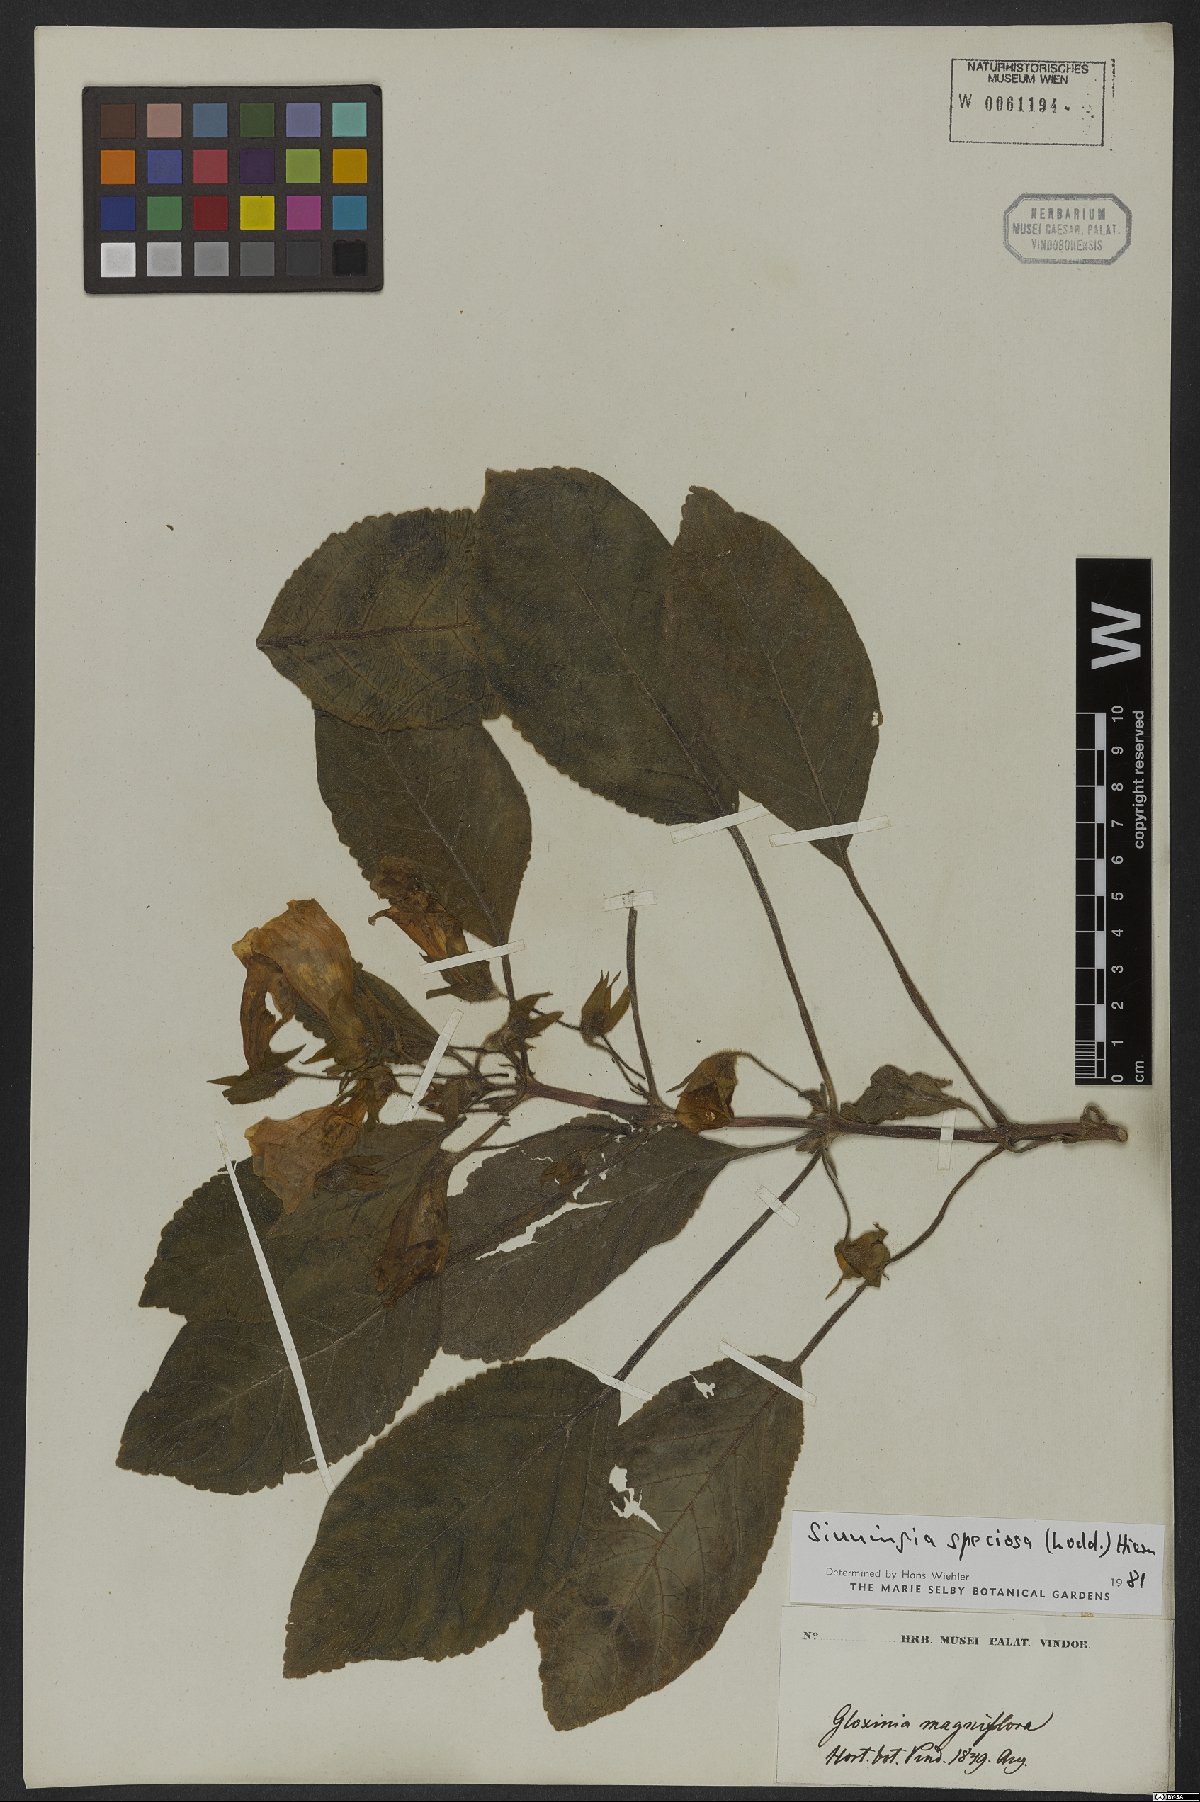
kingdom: Plantae
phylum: Tracheophyta
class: Magnoliopsida
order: Lamiales
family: Gesneriaceae
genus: Sinningia
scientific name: Sinningia speciosa
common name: Brazilian gloxinia
